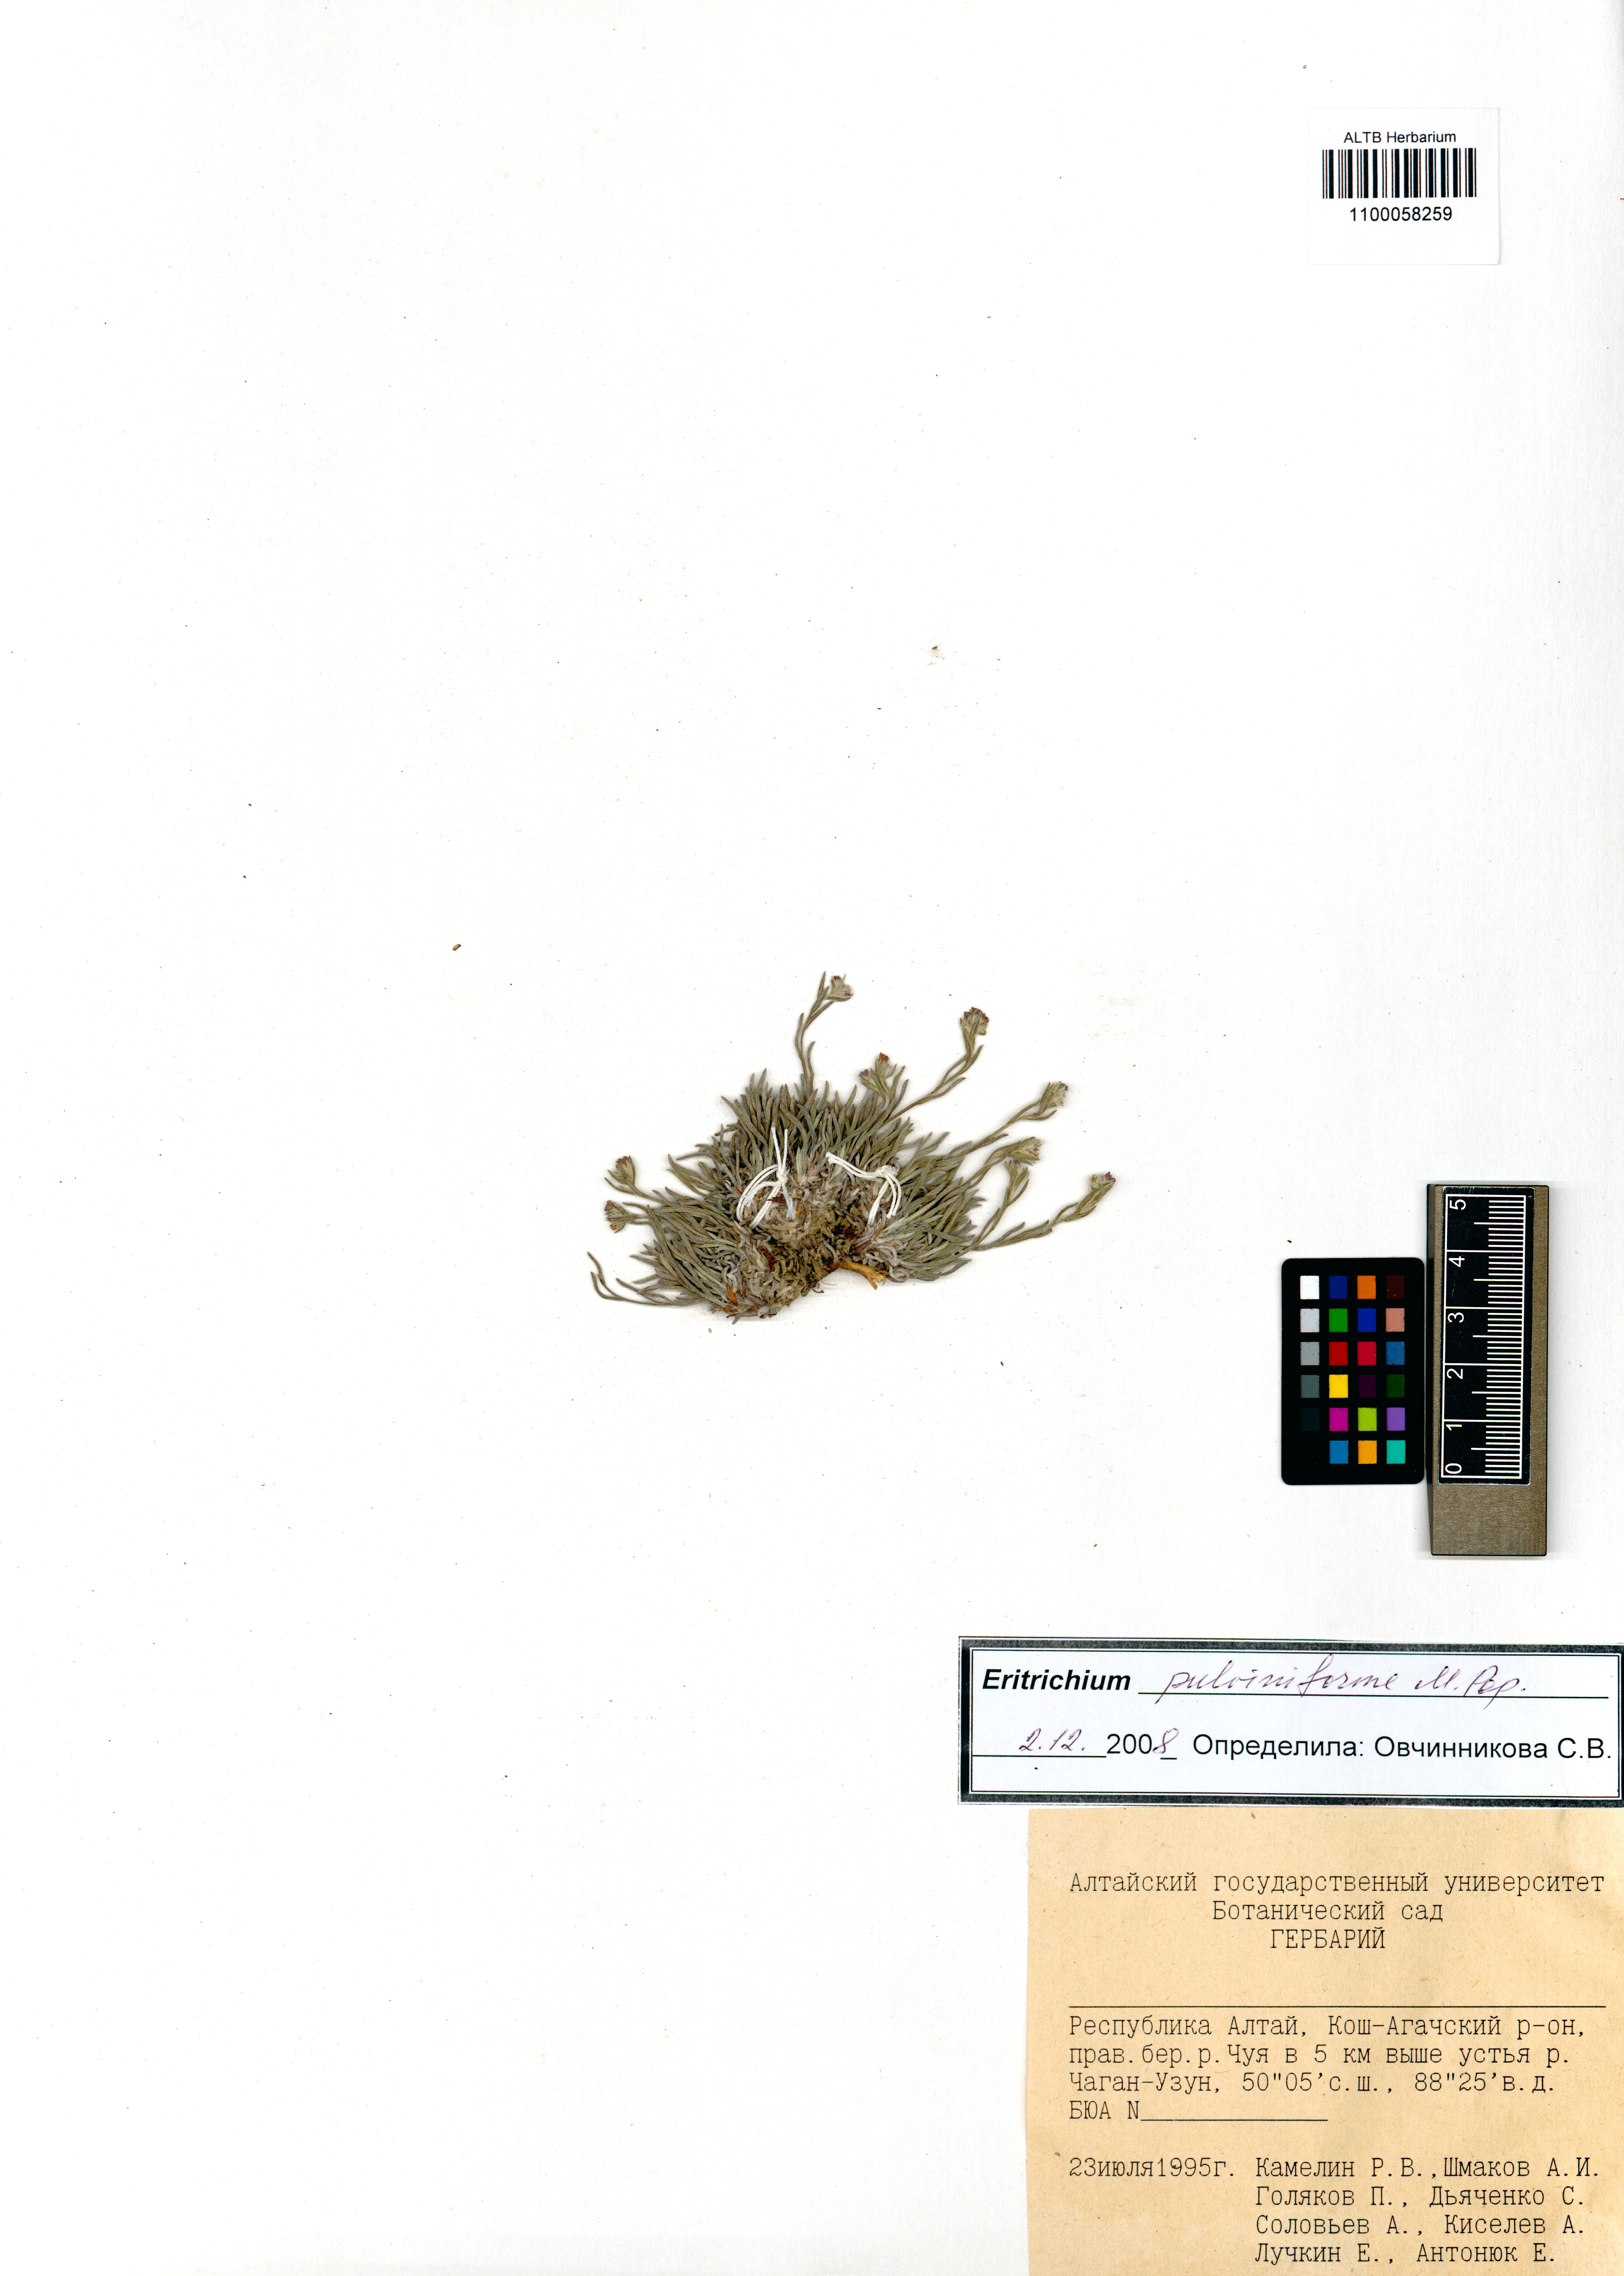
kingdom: Plantae
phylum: Tracheophyta
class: Magnoliopsida
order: Boraginales
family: Boraginaceae
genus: Eritrichium
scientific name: Eritrichium pauciflorum
